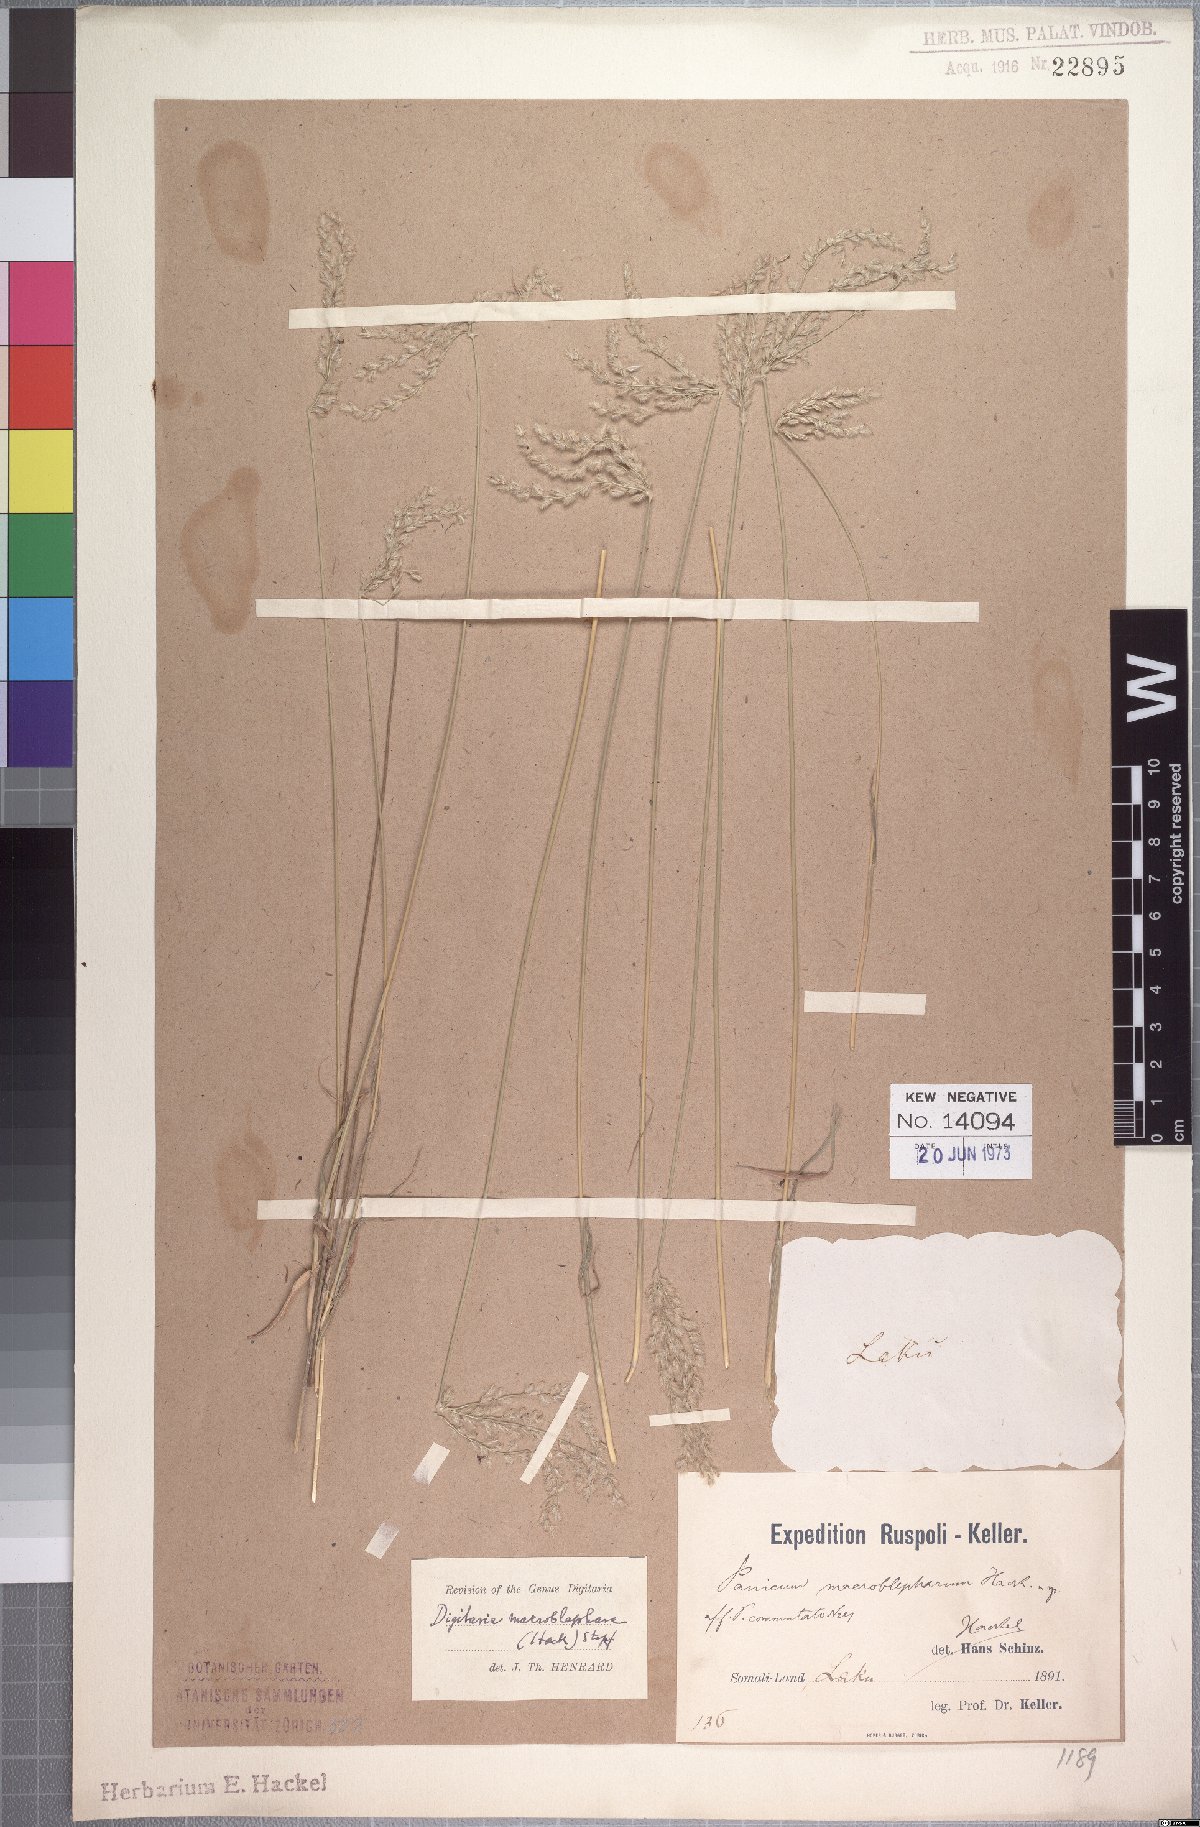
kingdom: Plantae
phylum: Tracheophyta
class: Liliopsida
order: Poales
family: Poaceae
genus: Digitaria
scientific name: Digitaria macroblephara
